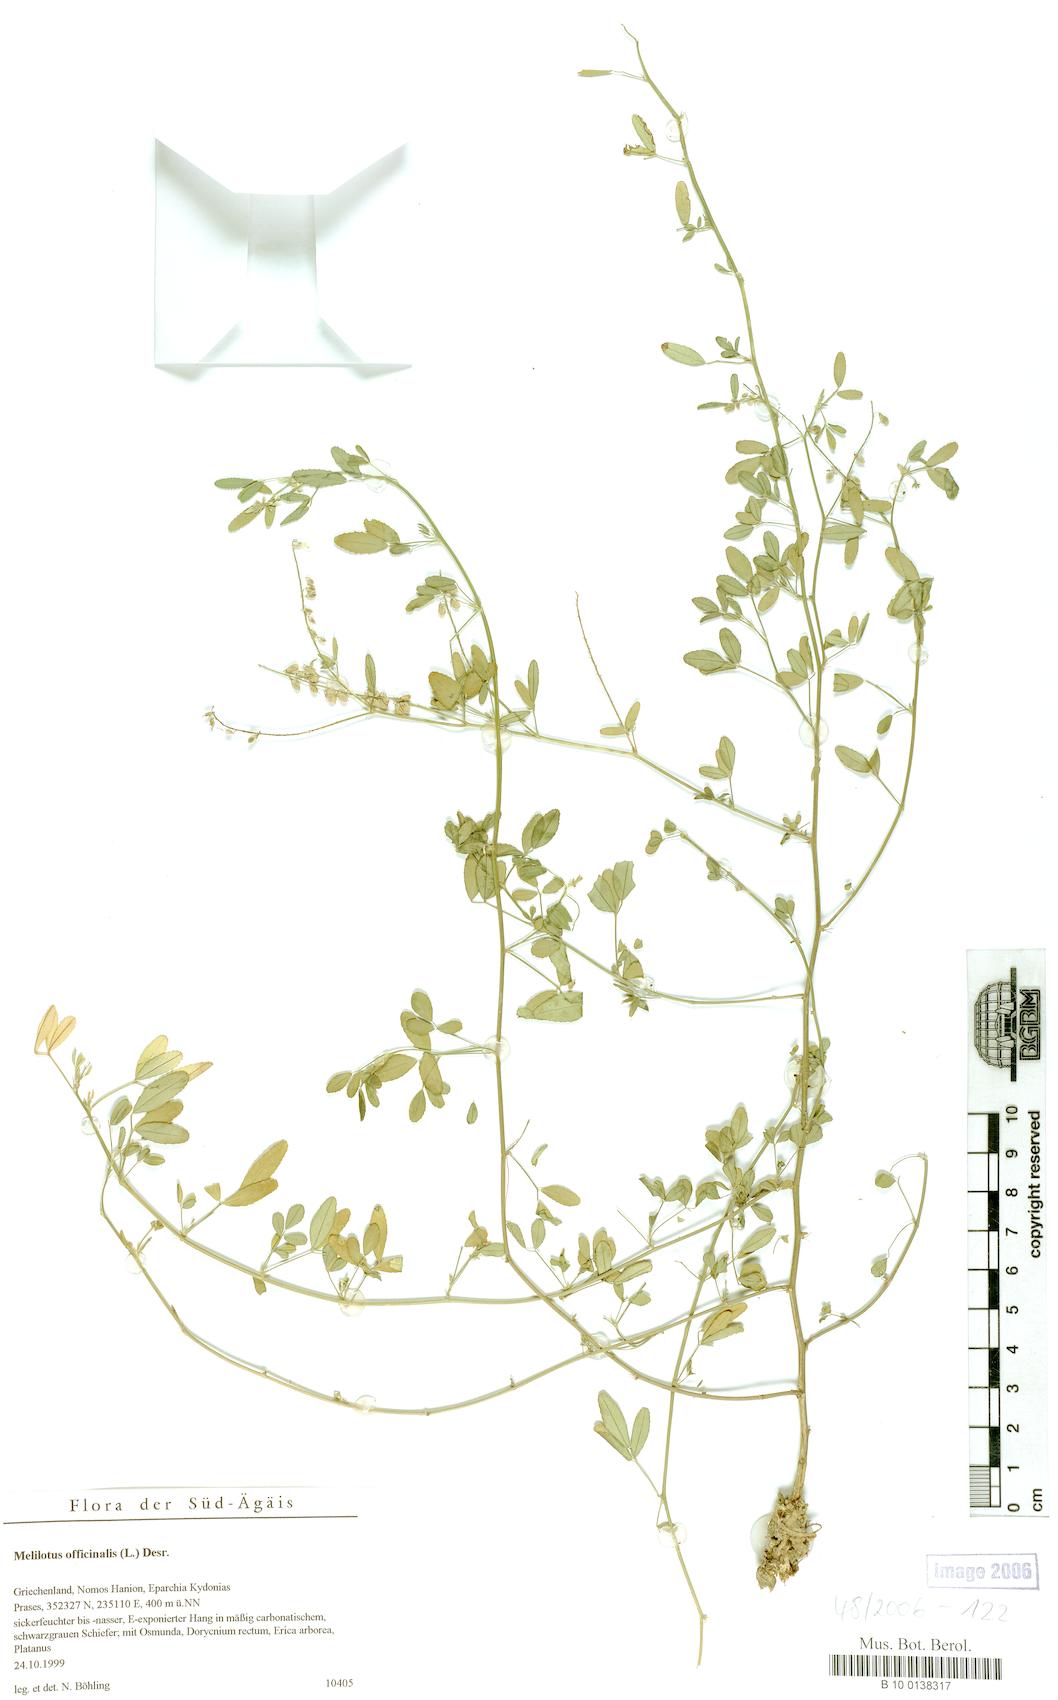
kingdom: Plantae
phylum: Tracheophyta
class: Magnoliopsida
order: Fabales
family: Fabaceae
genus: Melilotus
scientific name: Melilotus officinalis
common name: Sweetclover
